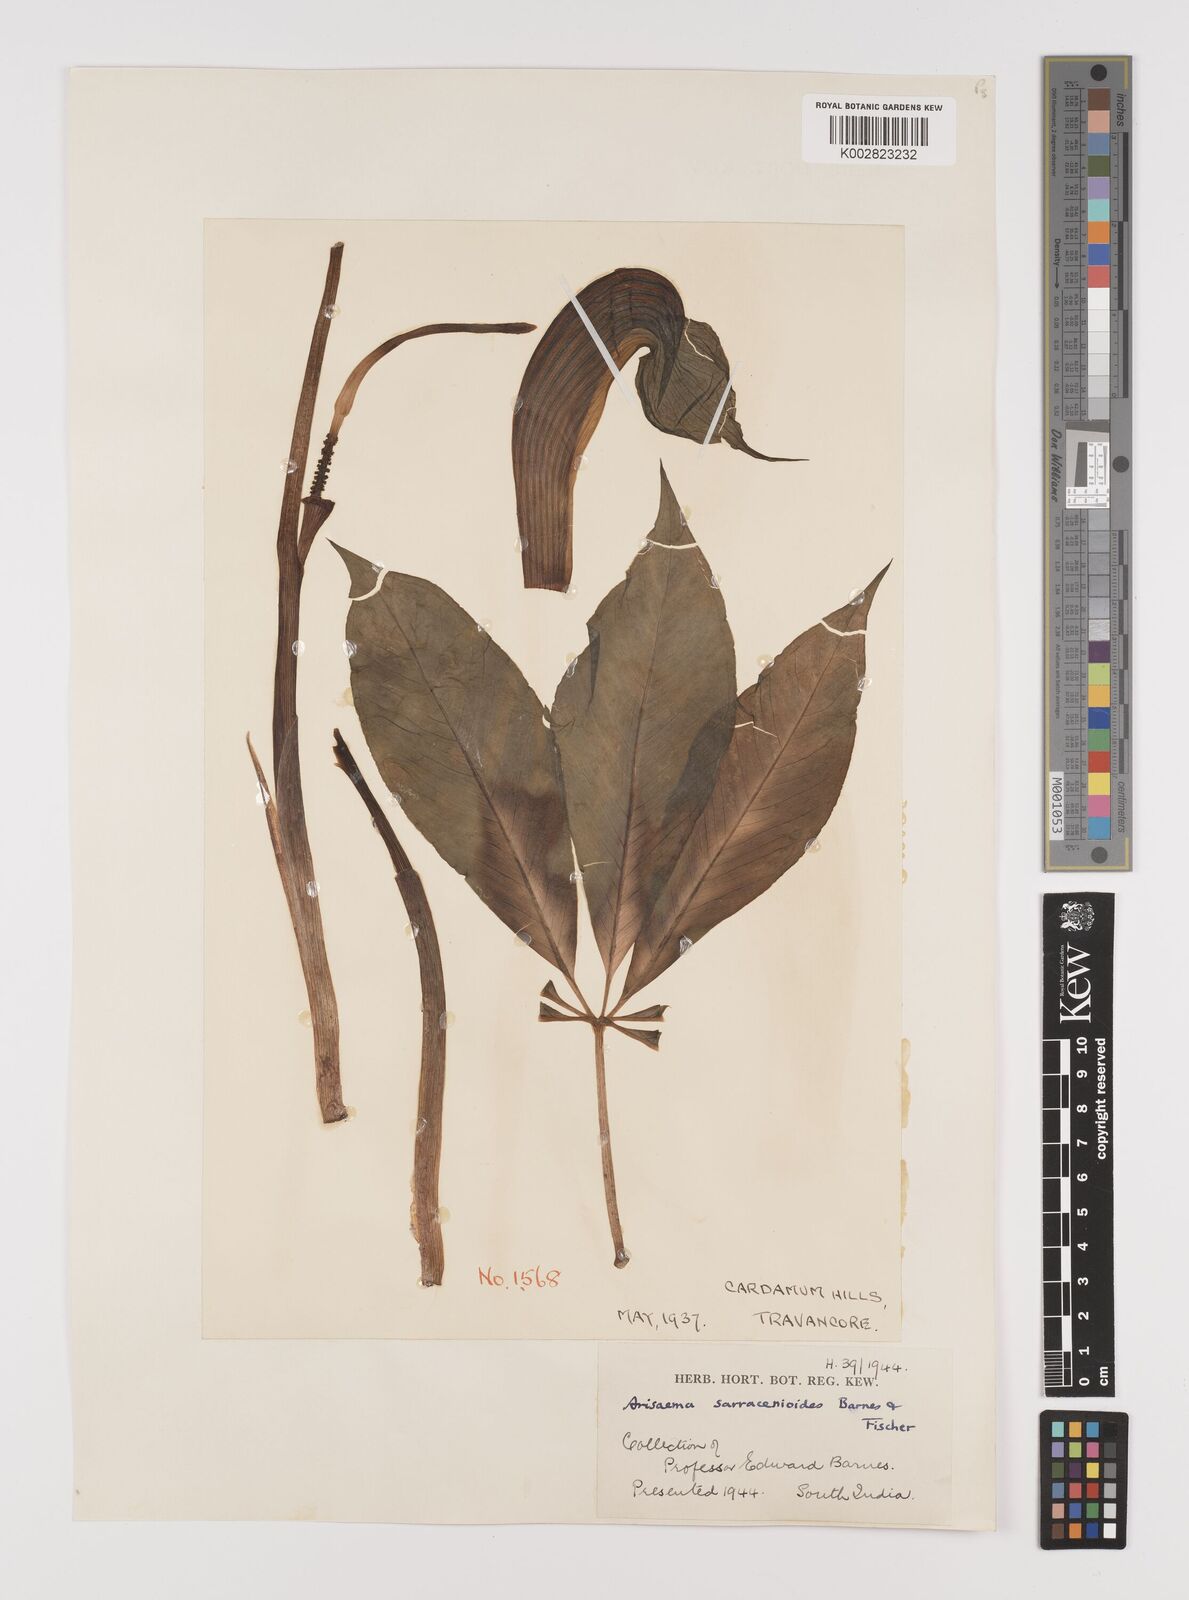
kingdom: Plantae
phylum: Tracheophyta
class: Liliopsida
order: Alismatales
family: Araceae
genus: Arisaema
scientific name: Arisaema sarracenioides
